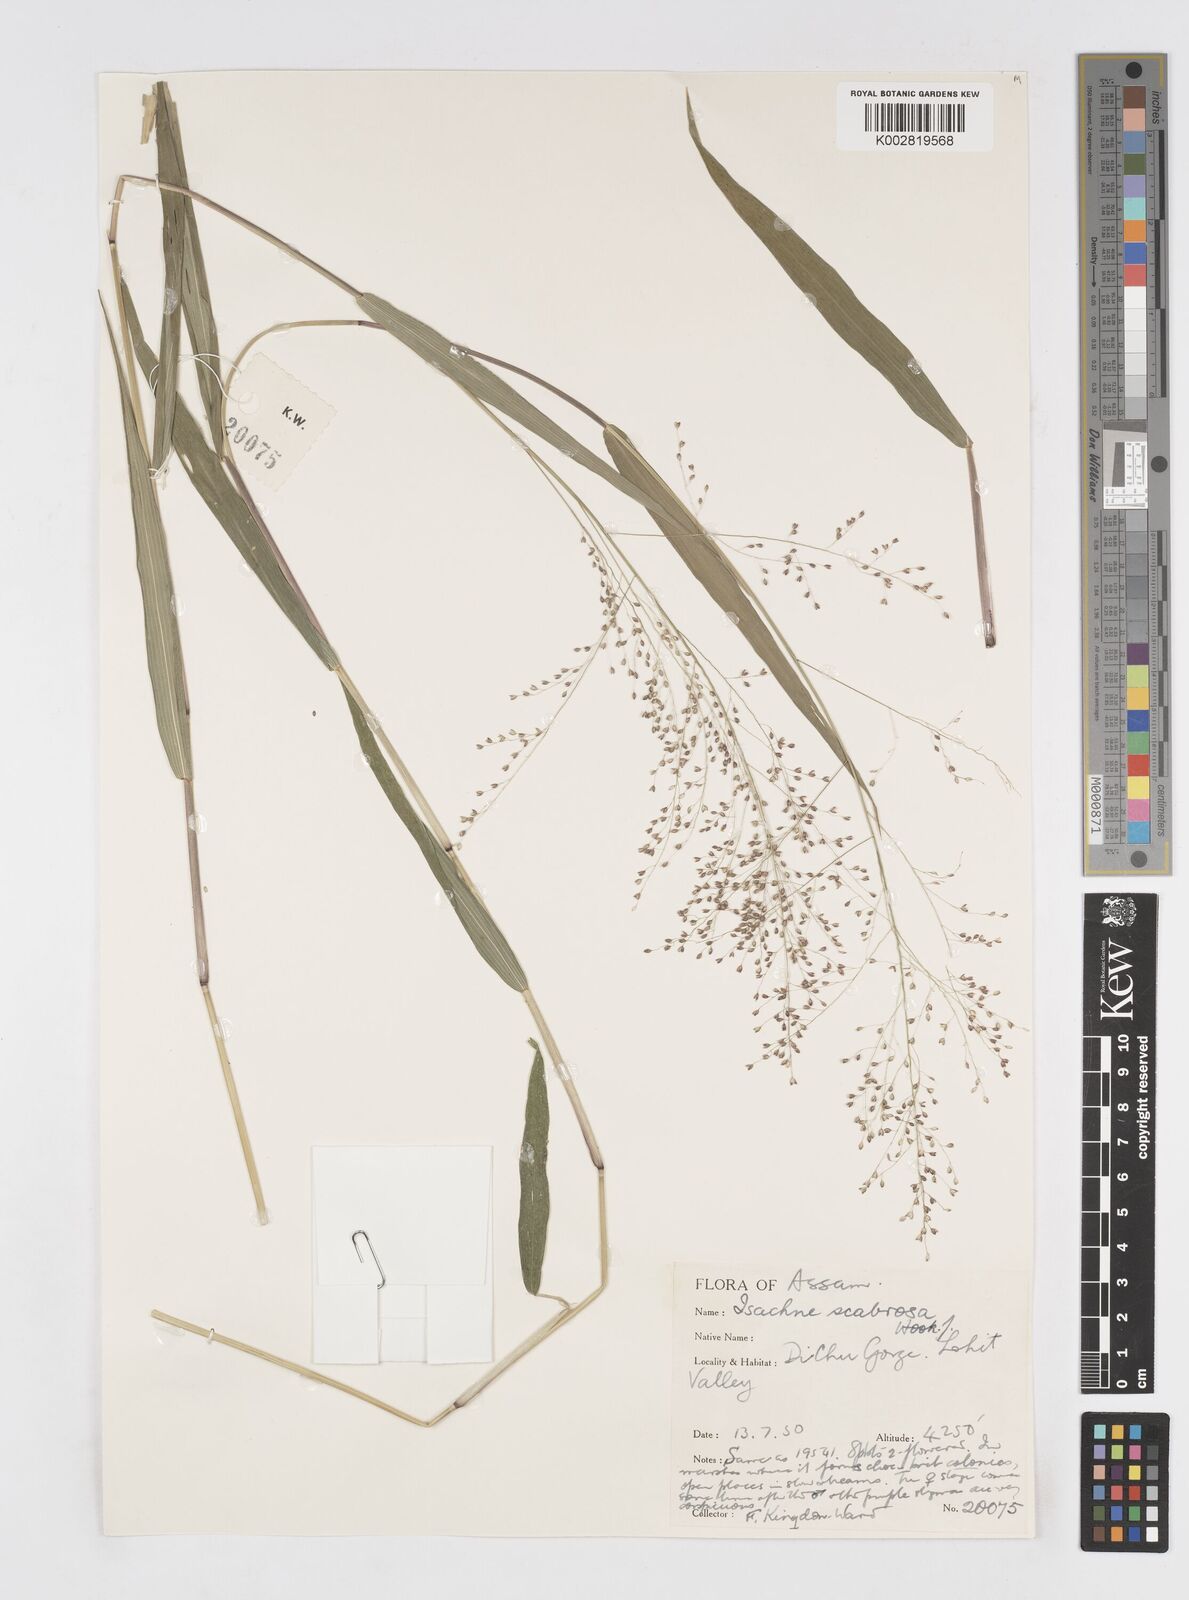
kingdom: Plantae
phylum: Tracheophyta
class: Liliopsida
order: Poales
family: Poaceae
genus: Isachne
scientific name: Isachne scabrosa
